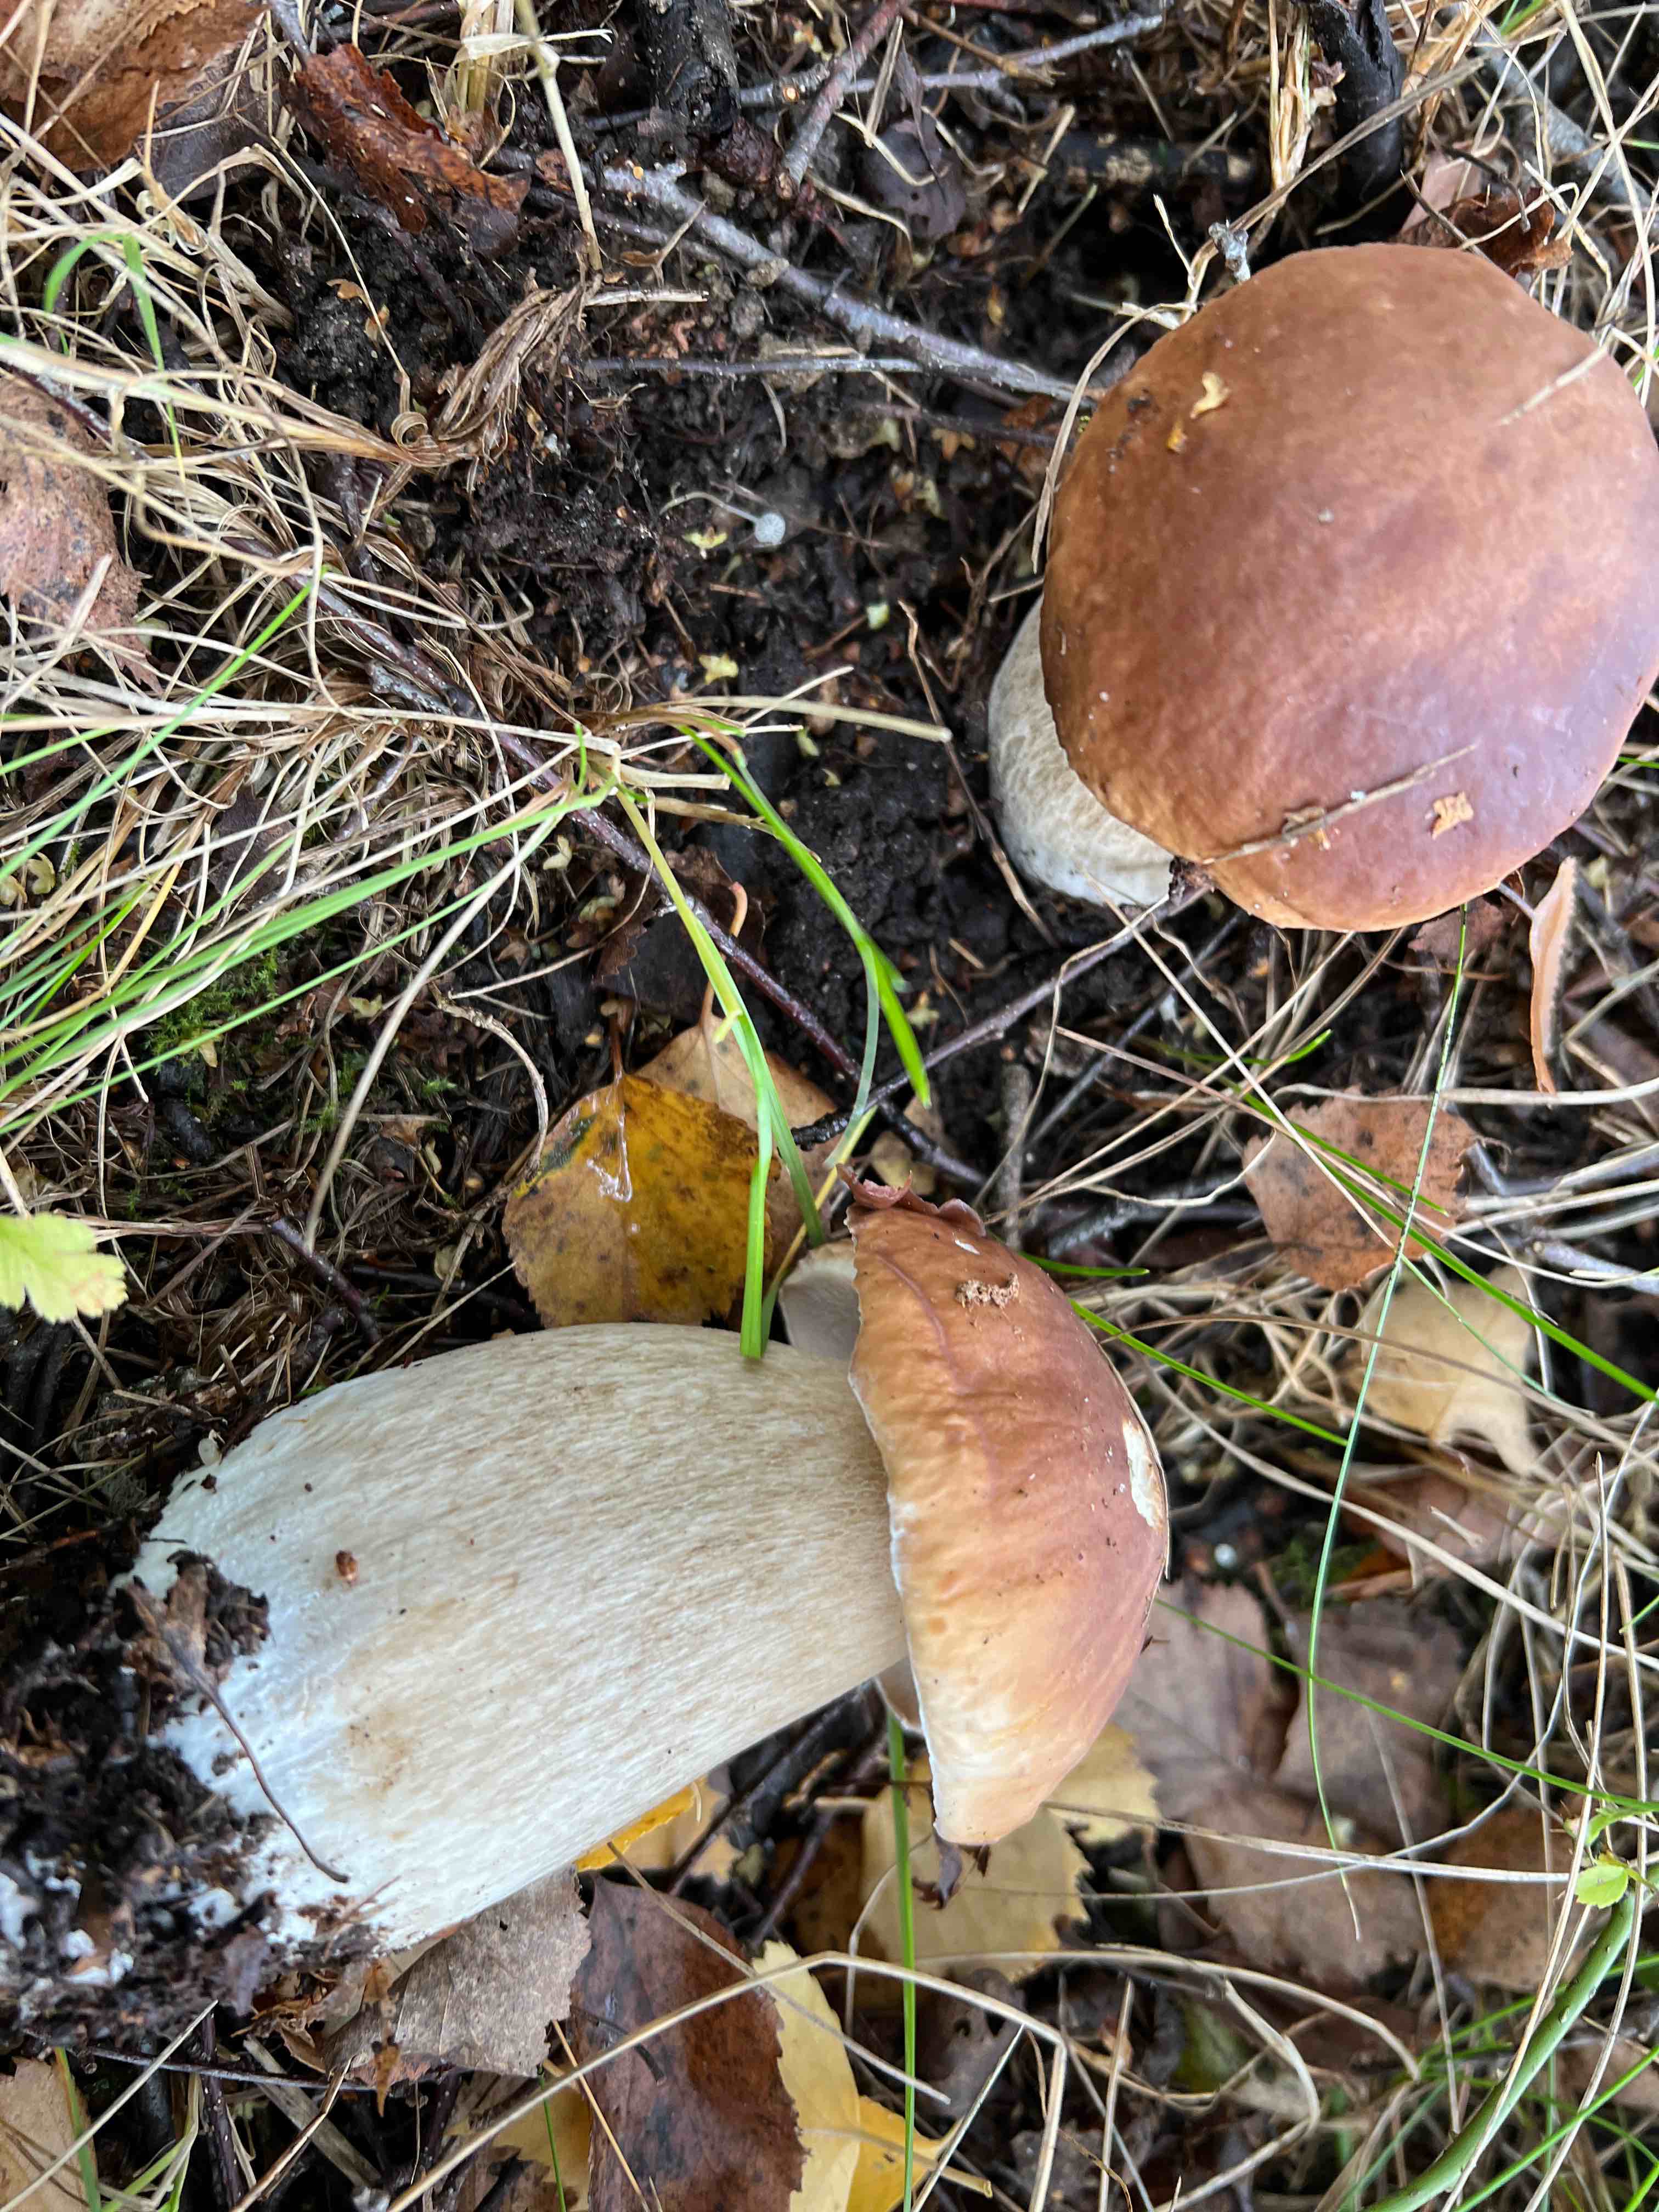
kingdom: Fungi
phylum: Basidiomycota
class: Agaricomycetes
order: Boletales
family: Boletaceae
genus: Boletus
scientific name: Boletus edulis
